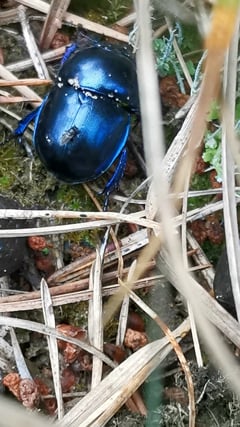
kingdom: Animalia
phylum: Arthropoda
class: Insecta
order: Coleoptera
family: Geotrupidae
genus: Anoplotrupes
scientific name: Anoplotrupes stercorosus
